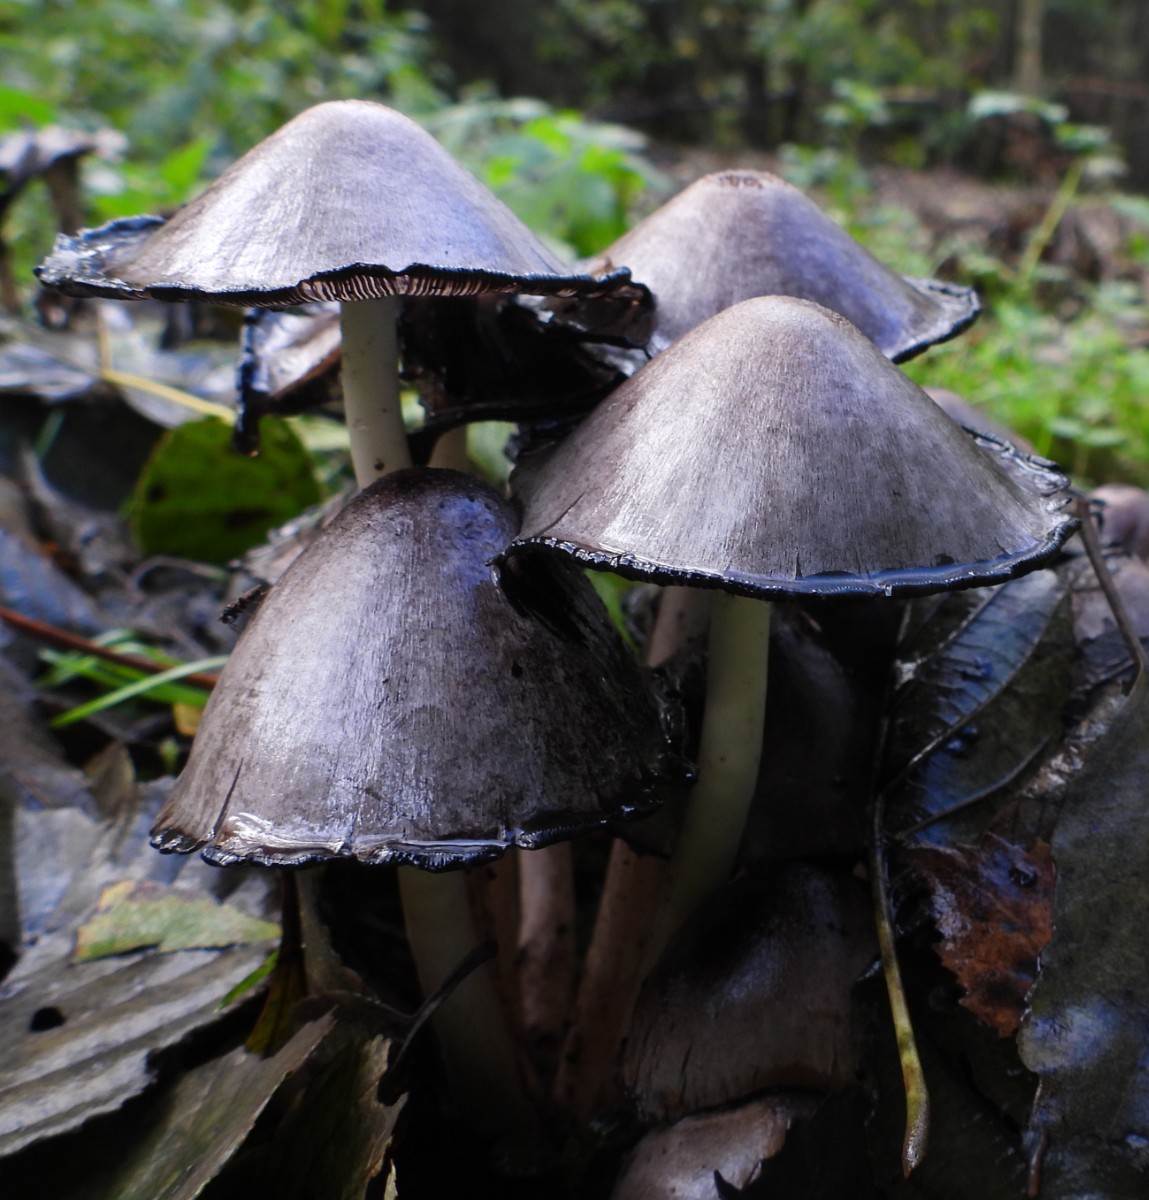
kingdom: Fungi
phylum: Basidiomycota
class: Agaricomycetes
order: Agaricales
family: Psathyrellaceae
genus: Coprinopsis
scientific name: Coprinopsis atramentaria
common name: almindelig blækhat
